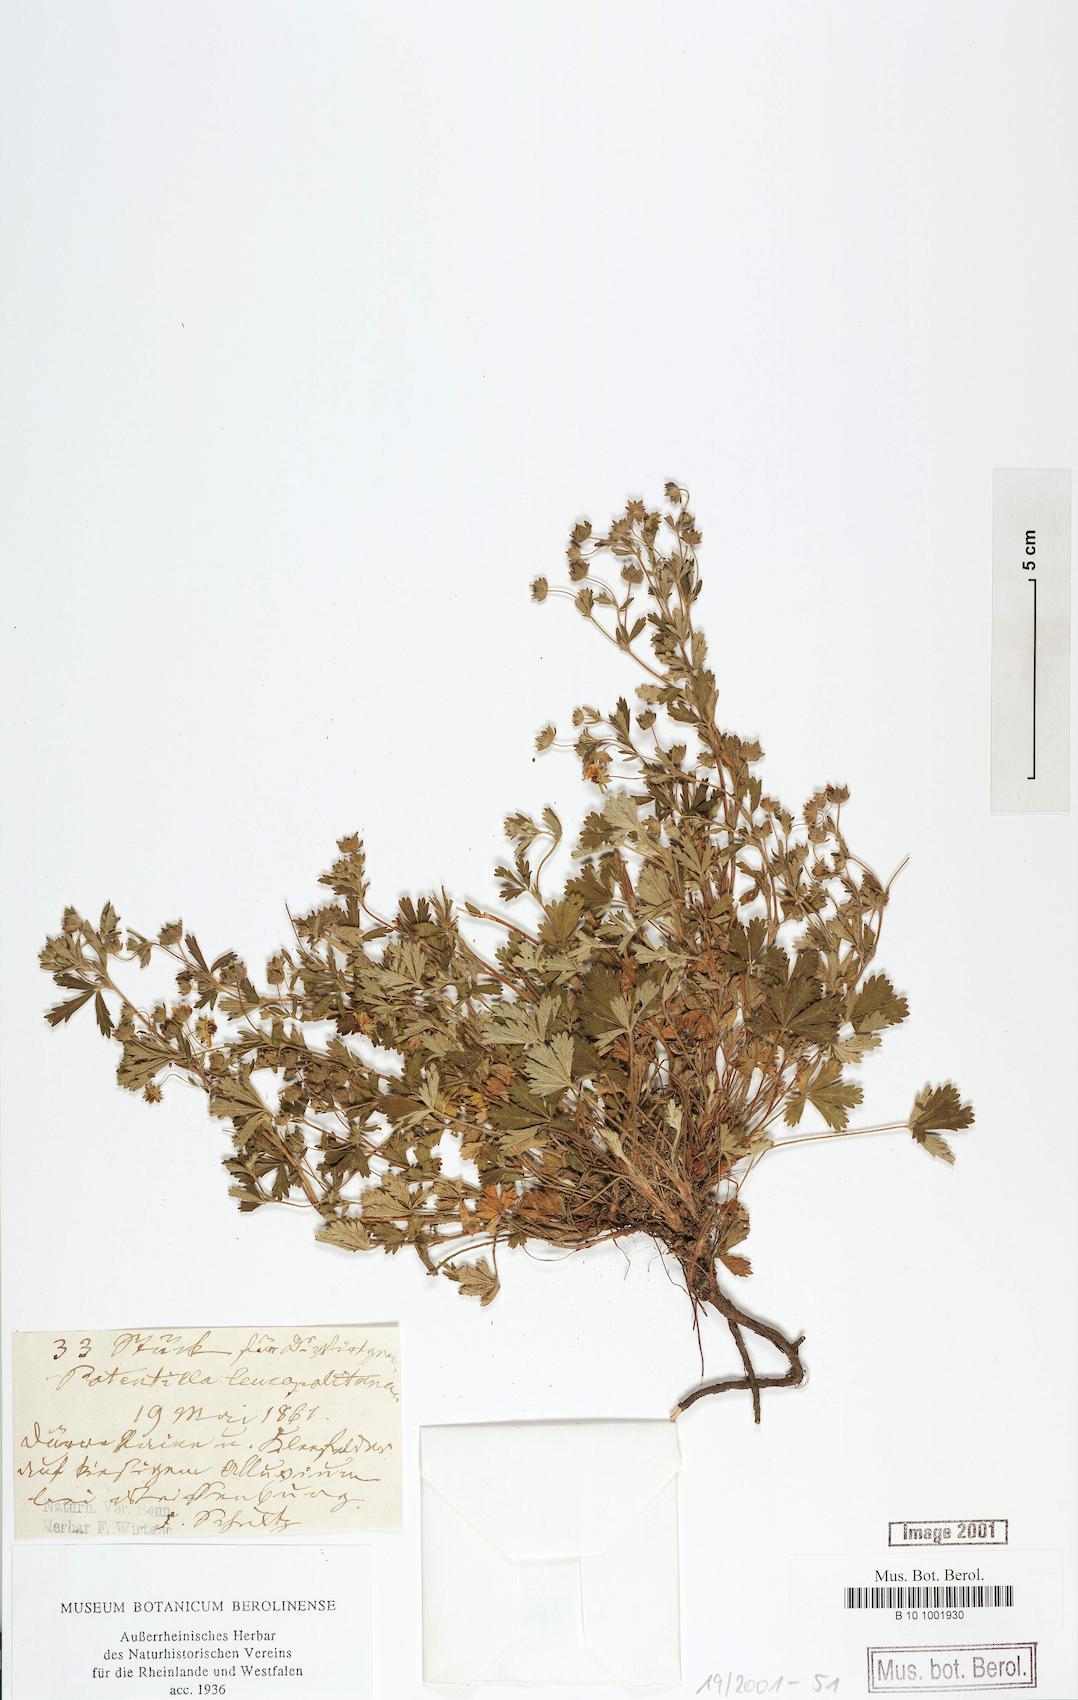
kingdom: Plantae
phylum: Tracheophyta
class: Magnoliopsida
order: Rosales
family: Rosaceae
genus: Potentilla
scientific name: Potentilla leucopolitana
